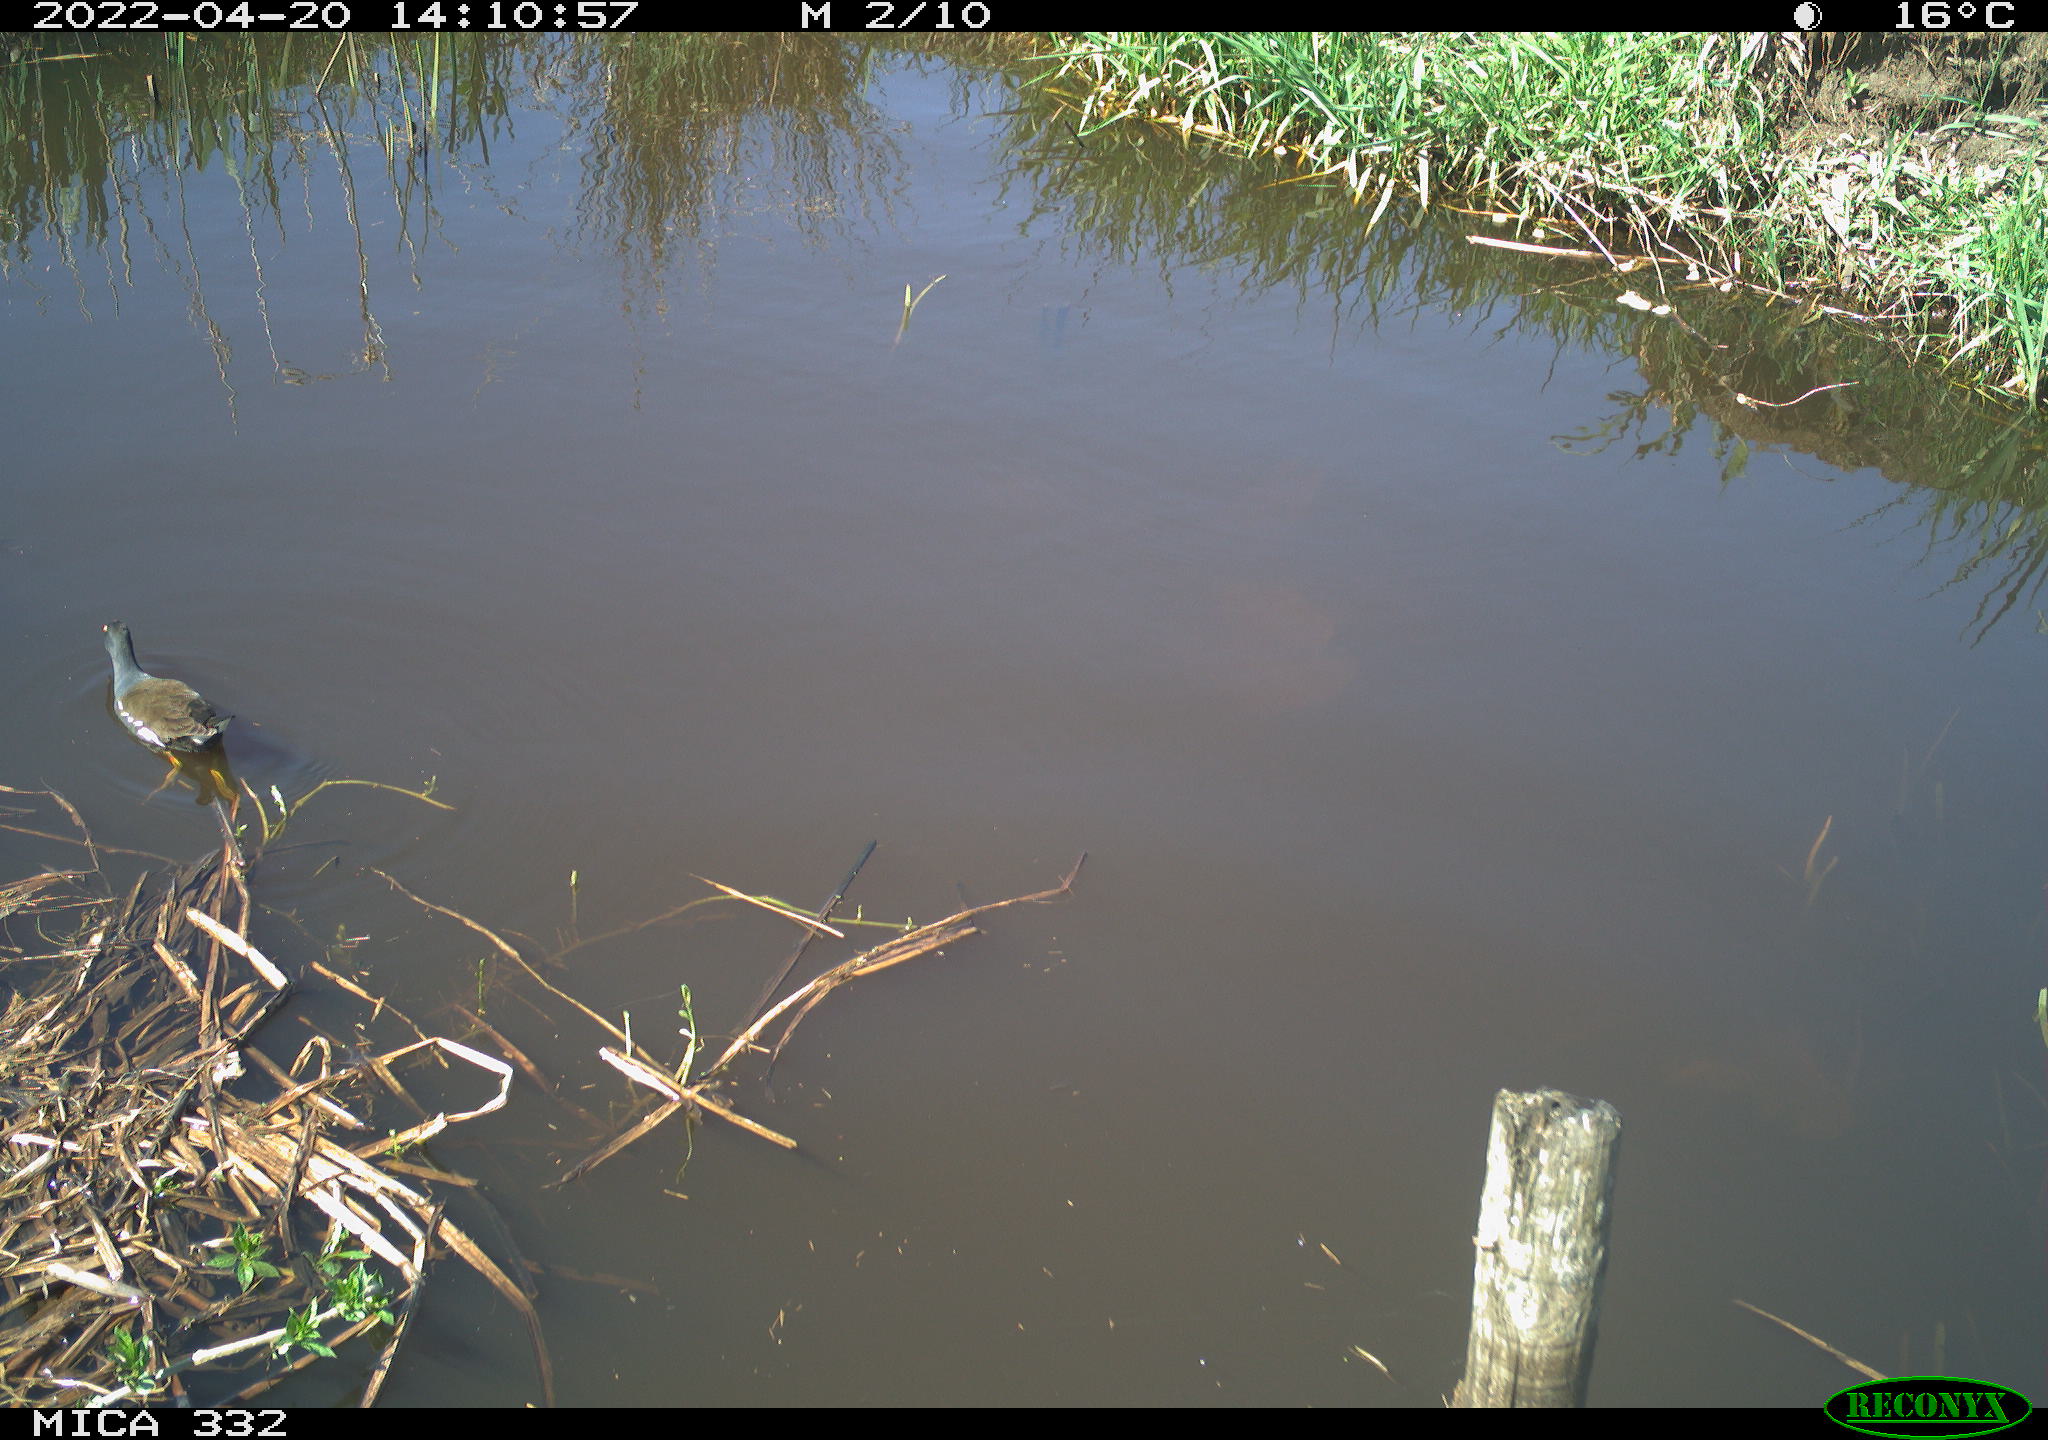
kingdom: Animalia
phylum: Chordata
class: Aves
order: Gruiformes
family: Rallidae
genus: Gallinula
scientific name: Gallinula chloropus
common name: Common moorhen
